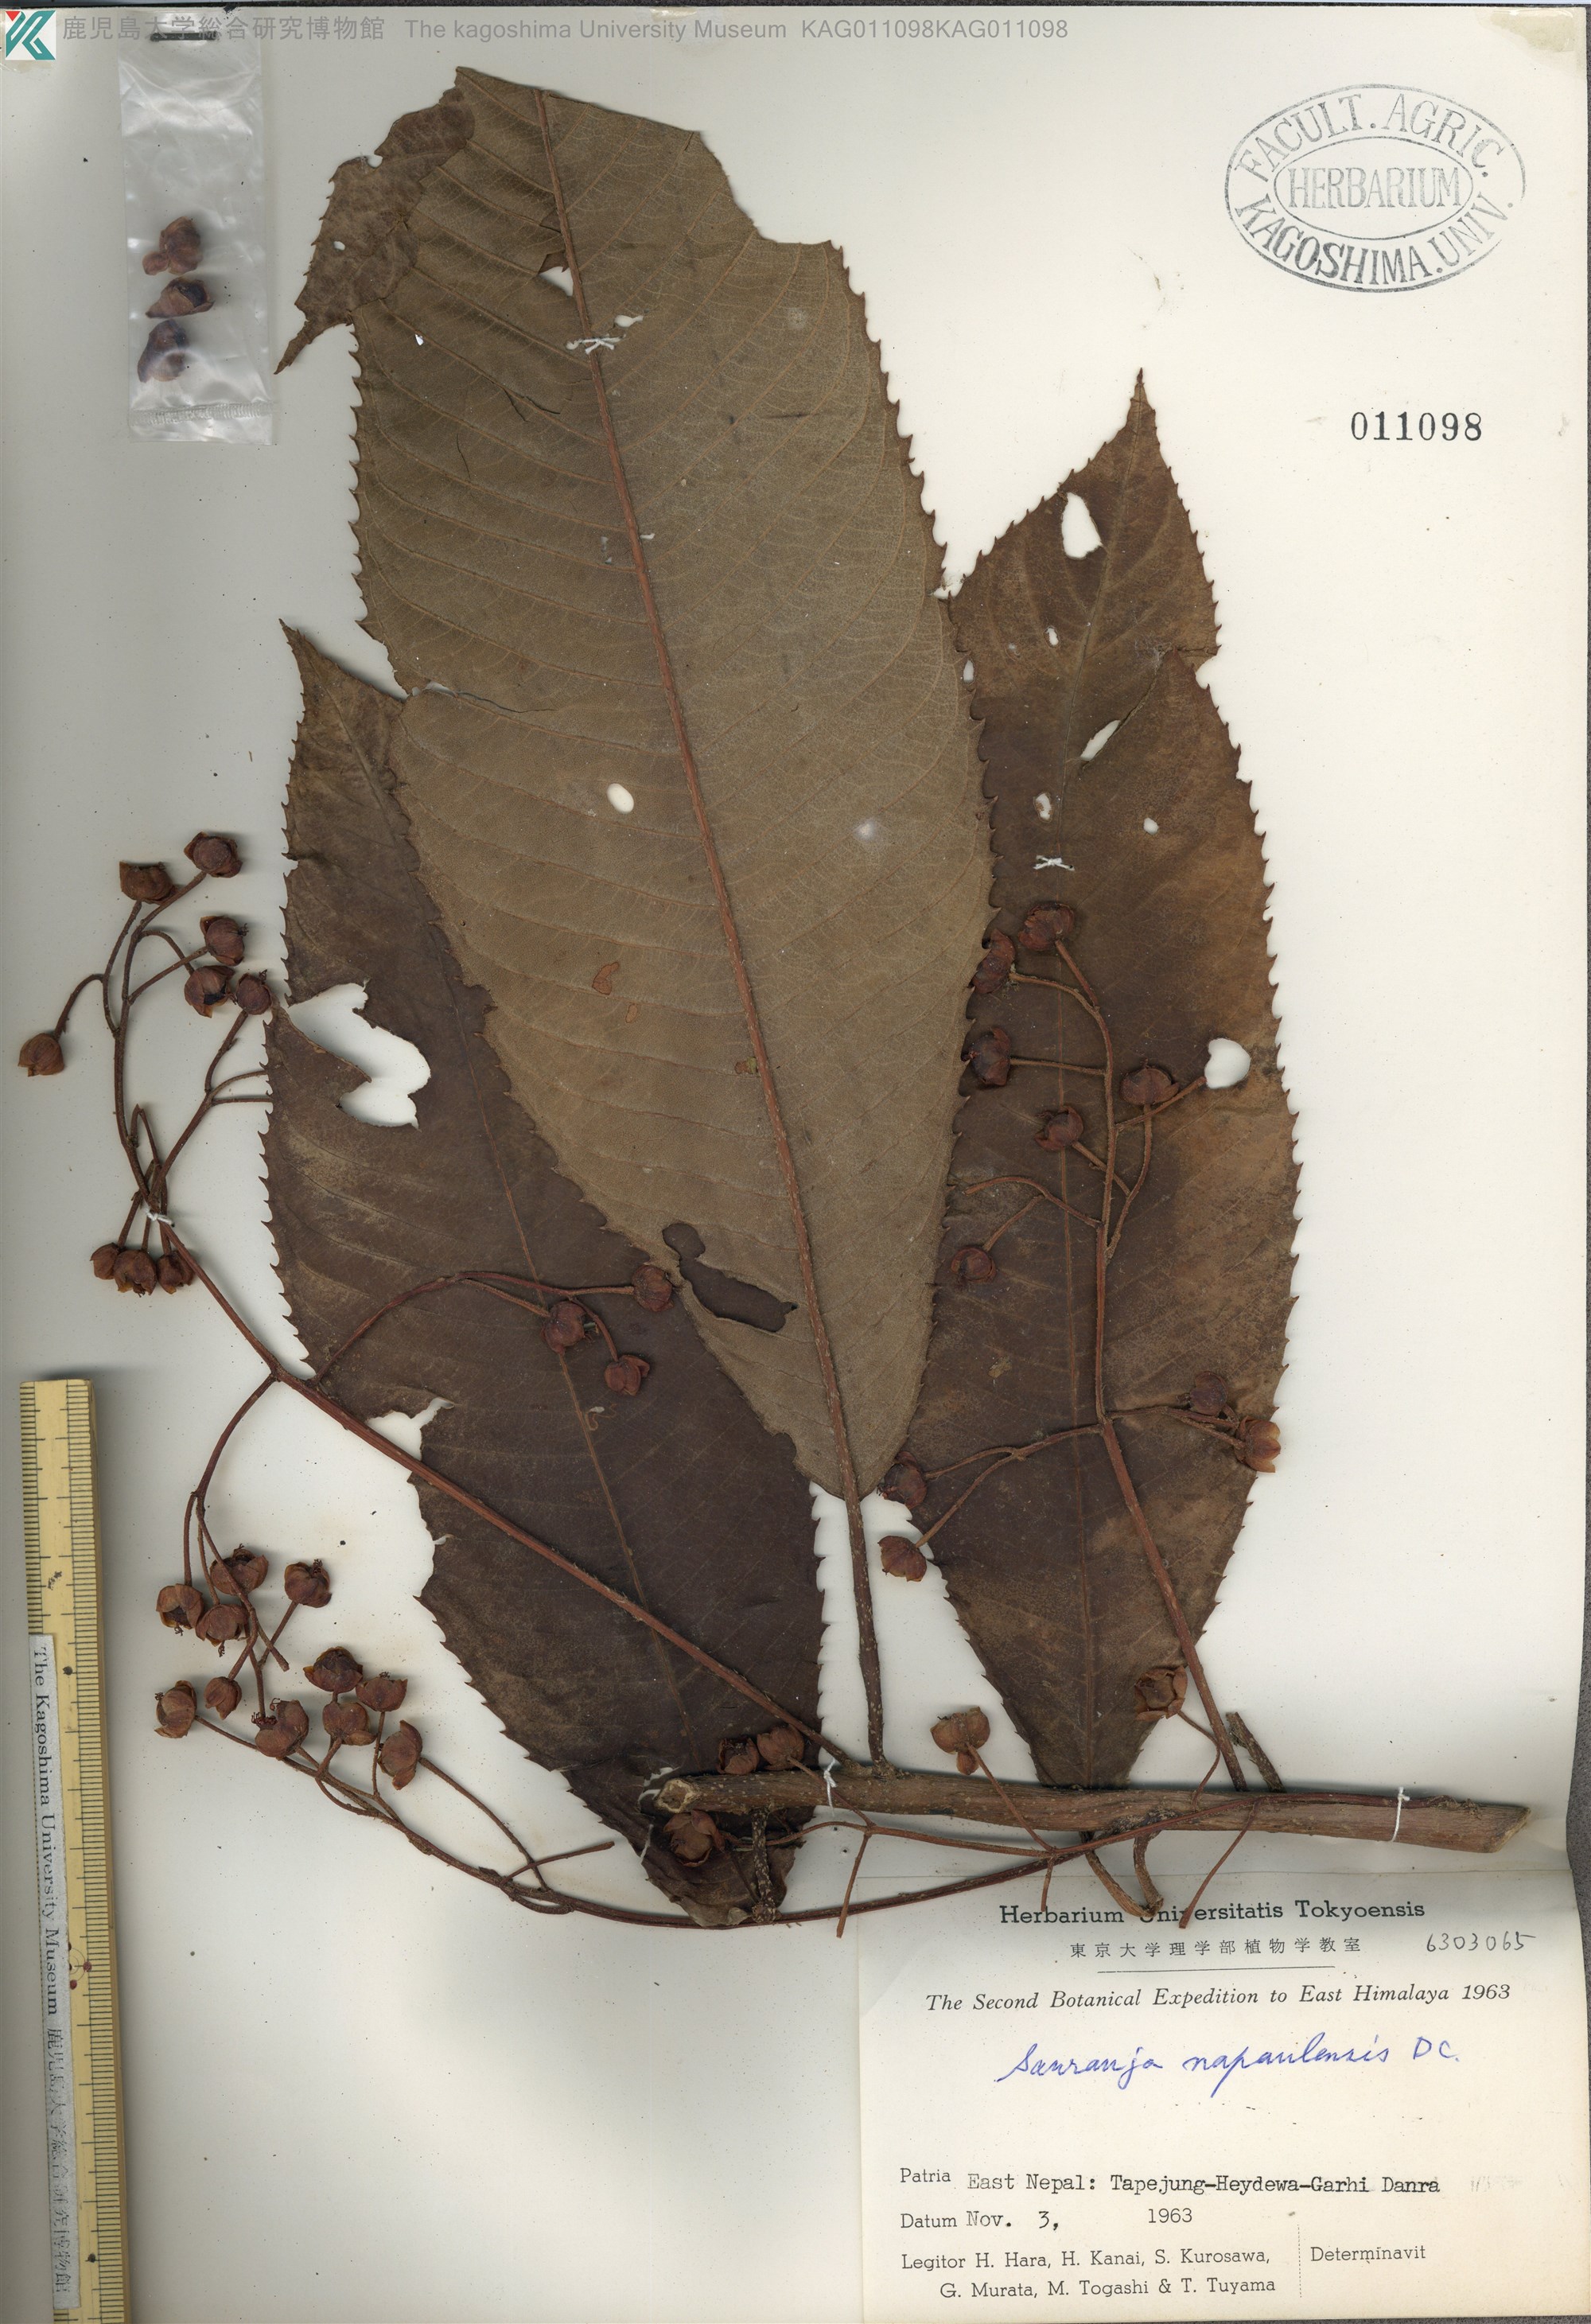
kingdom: Plantae
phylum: Tracheophyta
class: Magnoliopsida
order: Ericales
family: Actinidiaceae
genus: Saurauia
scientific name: Saurauia napaulensis
